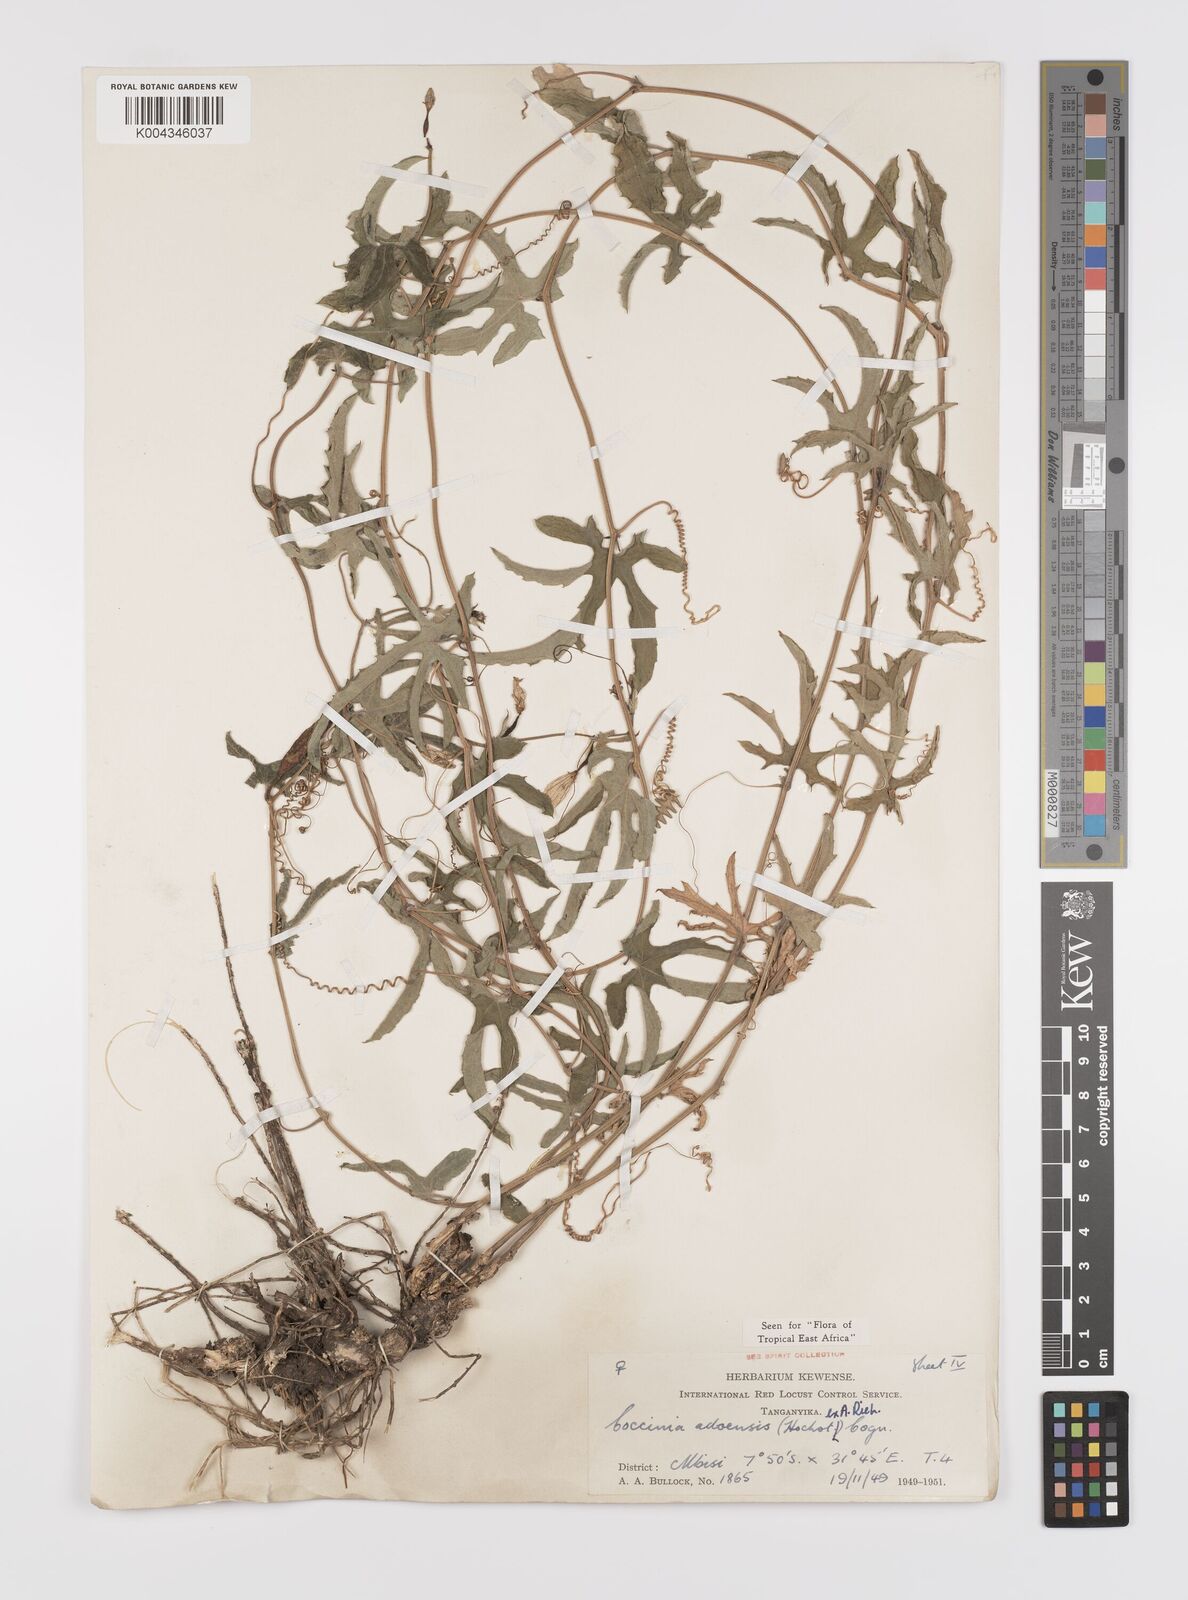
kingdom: Plantae
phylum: Tracheophyta
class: Magnoliopsida
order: Cucurbitales
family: Cucurbitaceae
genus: Coccinia
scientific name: Coccinia adoensis
